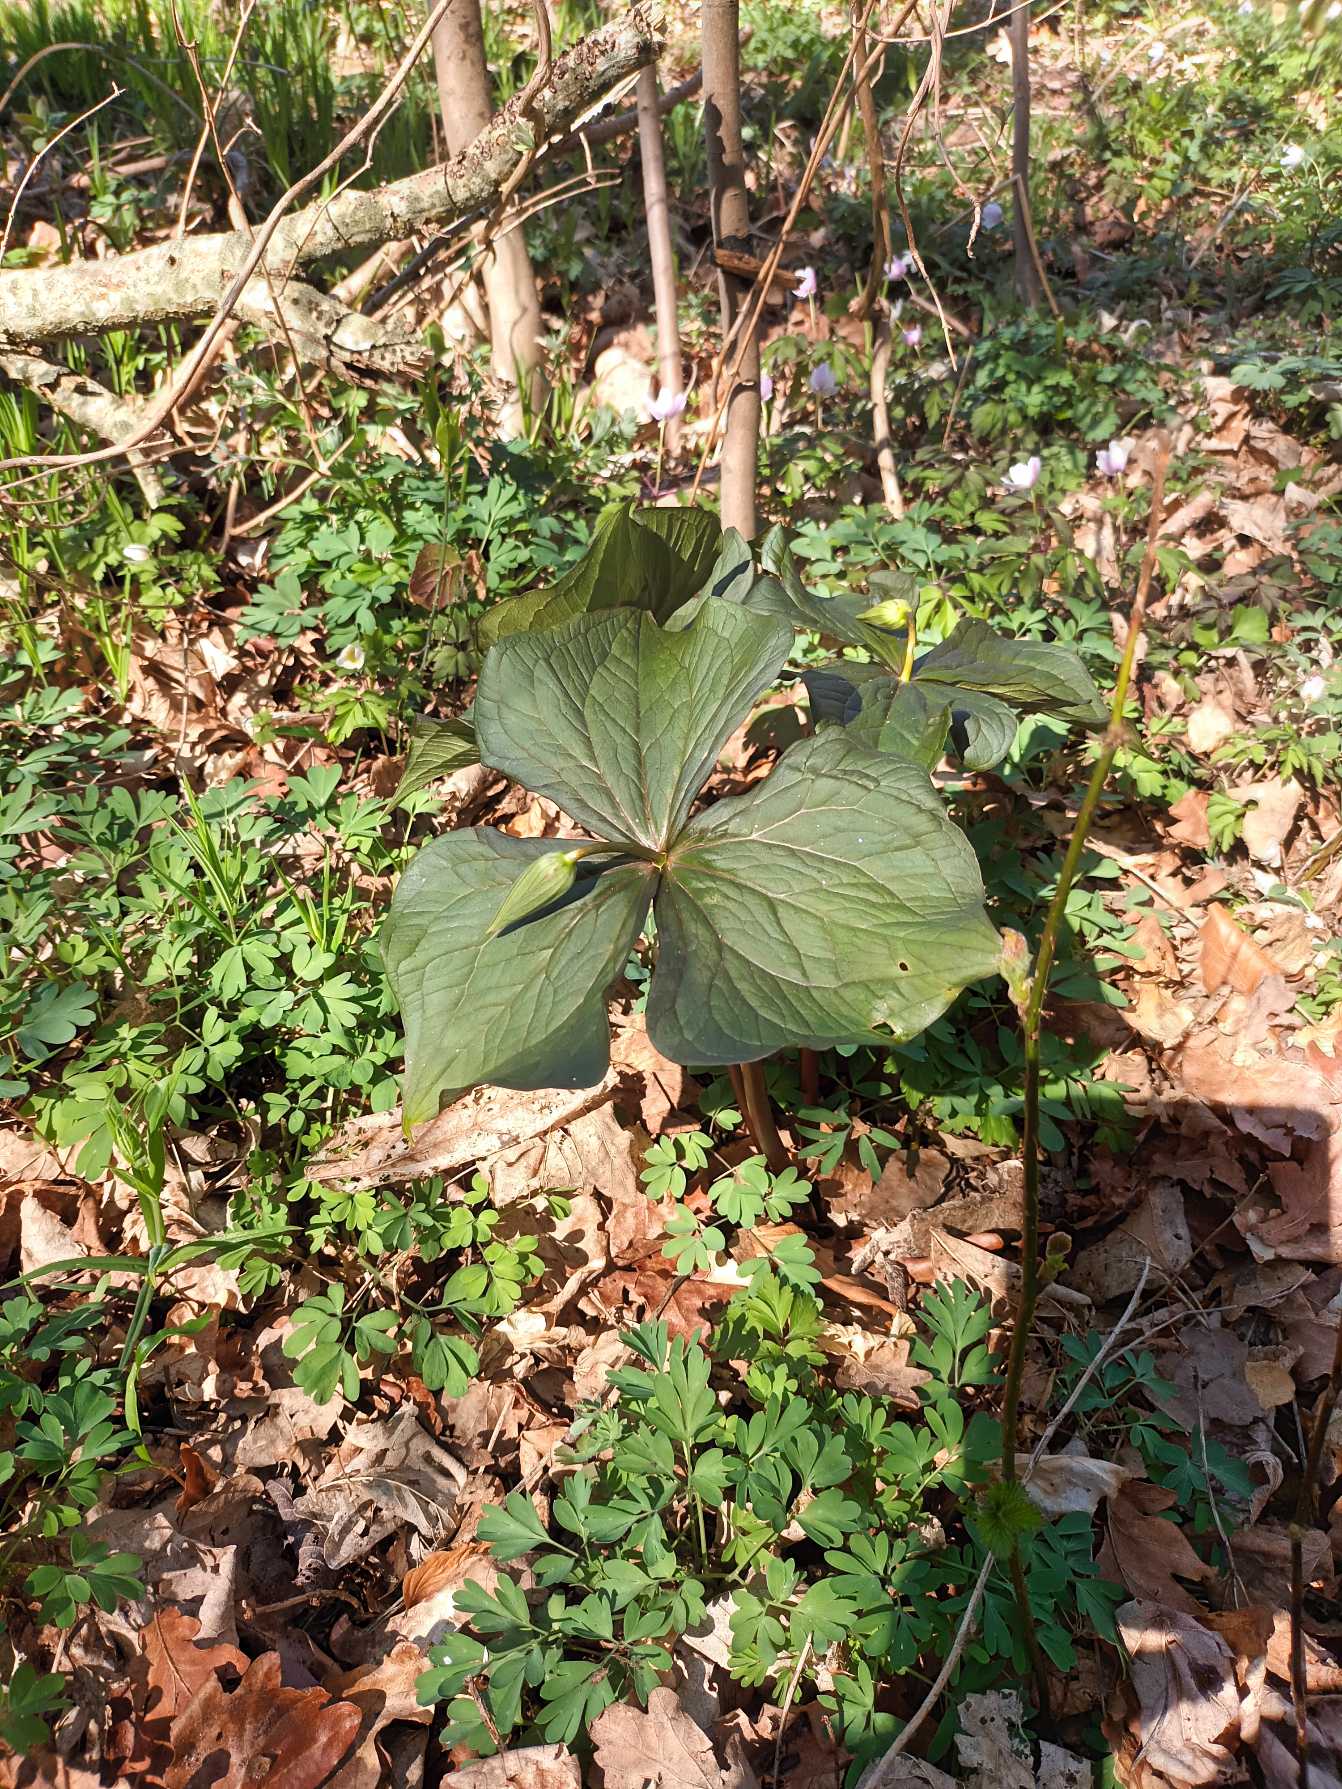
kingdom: Plantae
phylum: Tracheophyta
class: Liliopsida
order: Liliales
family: Melanthiaceae
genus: Trillium
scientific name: Trillium erectum
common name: Treblad
